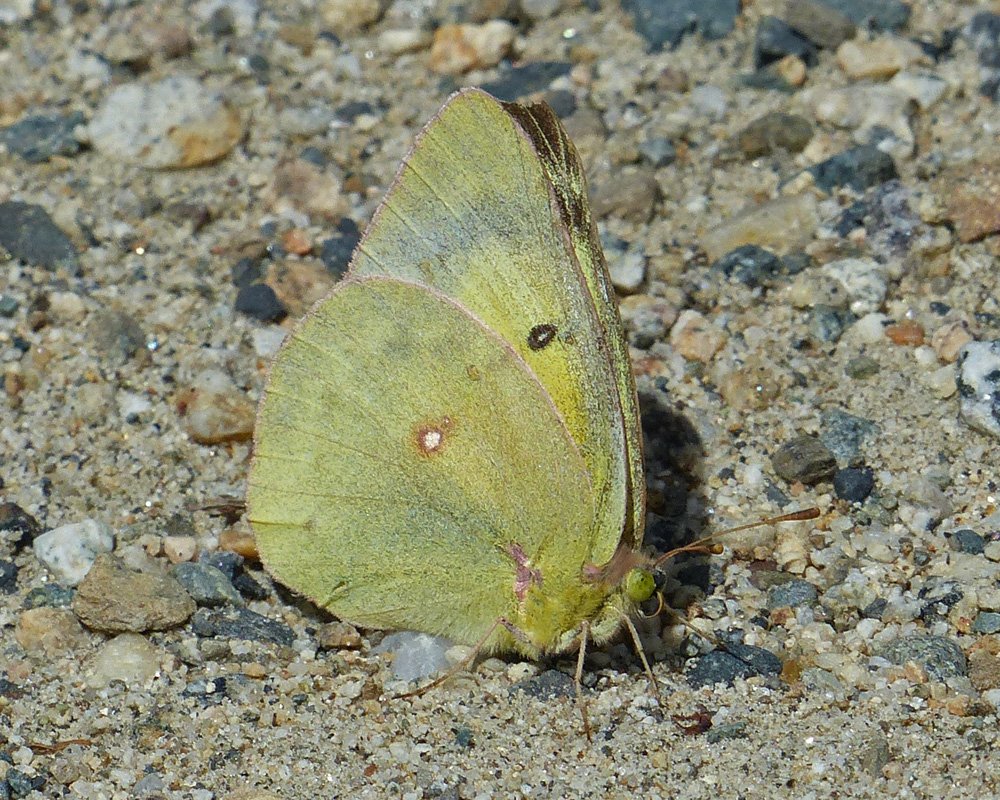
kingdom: Animalia
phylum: Arthropoda
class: Insecta
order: Lepidoptera
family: Pieridae
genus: Colias
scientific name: Colias philodice
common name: Clouded Sulphur
